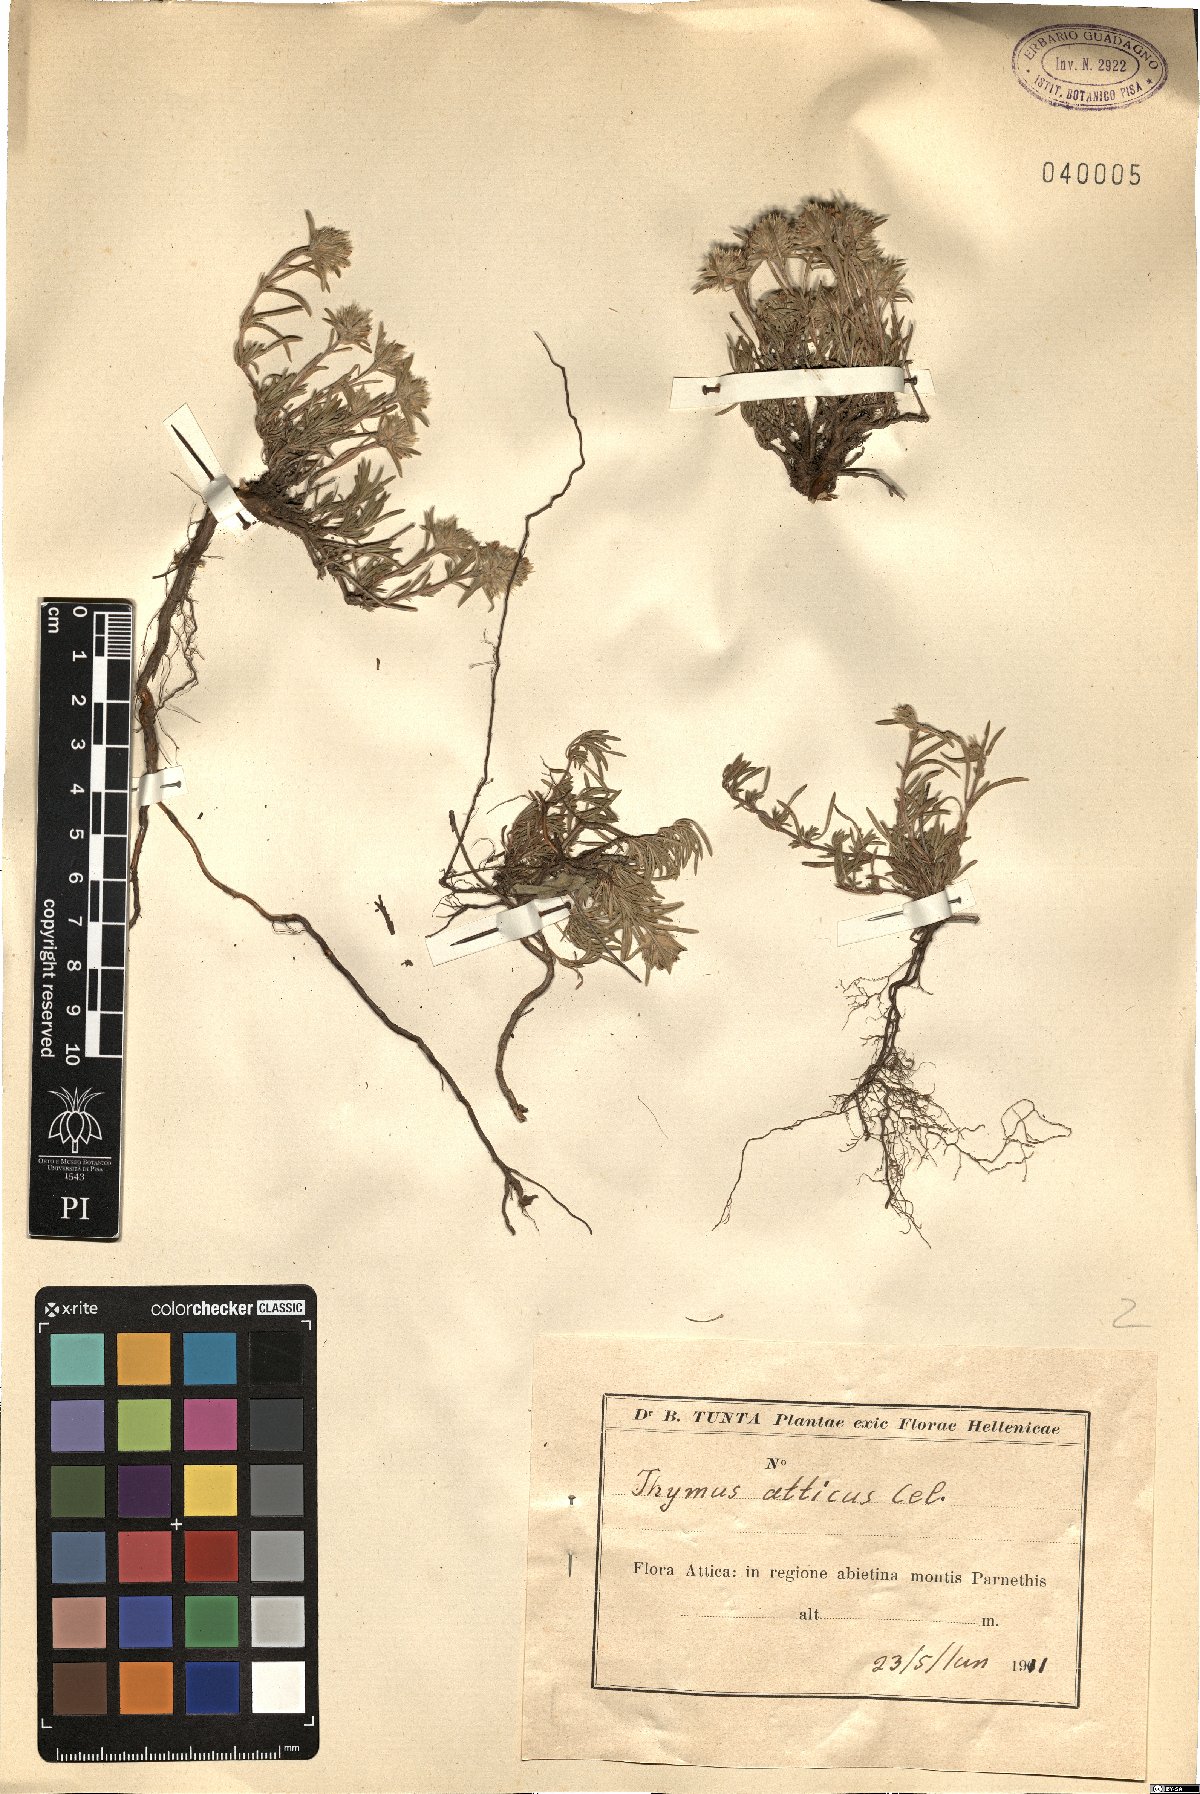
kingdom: Plantae
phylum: Tracheophyta
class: Magnoliopsida
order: Lamiales
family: Lamiaceae
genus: Thymus
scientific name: Thymus atticus
